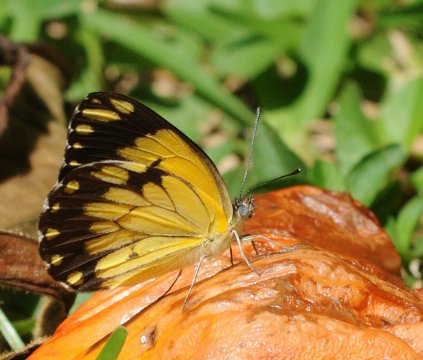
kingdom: Animalia
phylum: Arthropoda
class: Insecta
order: Lepidoptera
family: Pieridae
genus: Belenois
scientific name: Belenois creona
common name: African Caper
